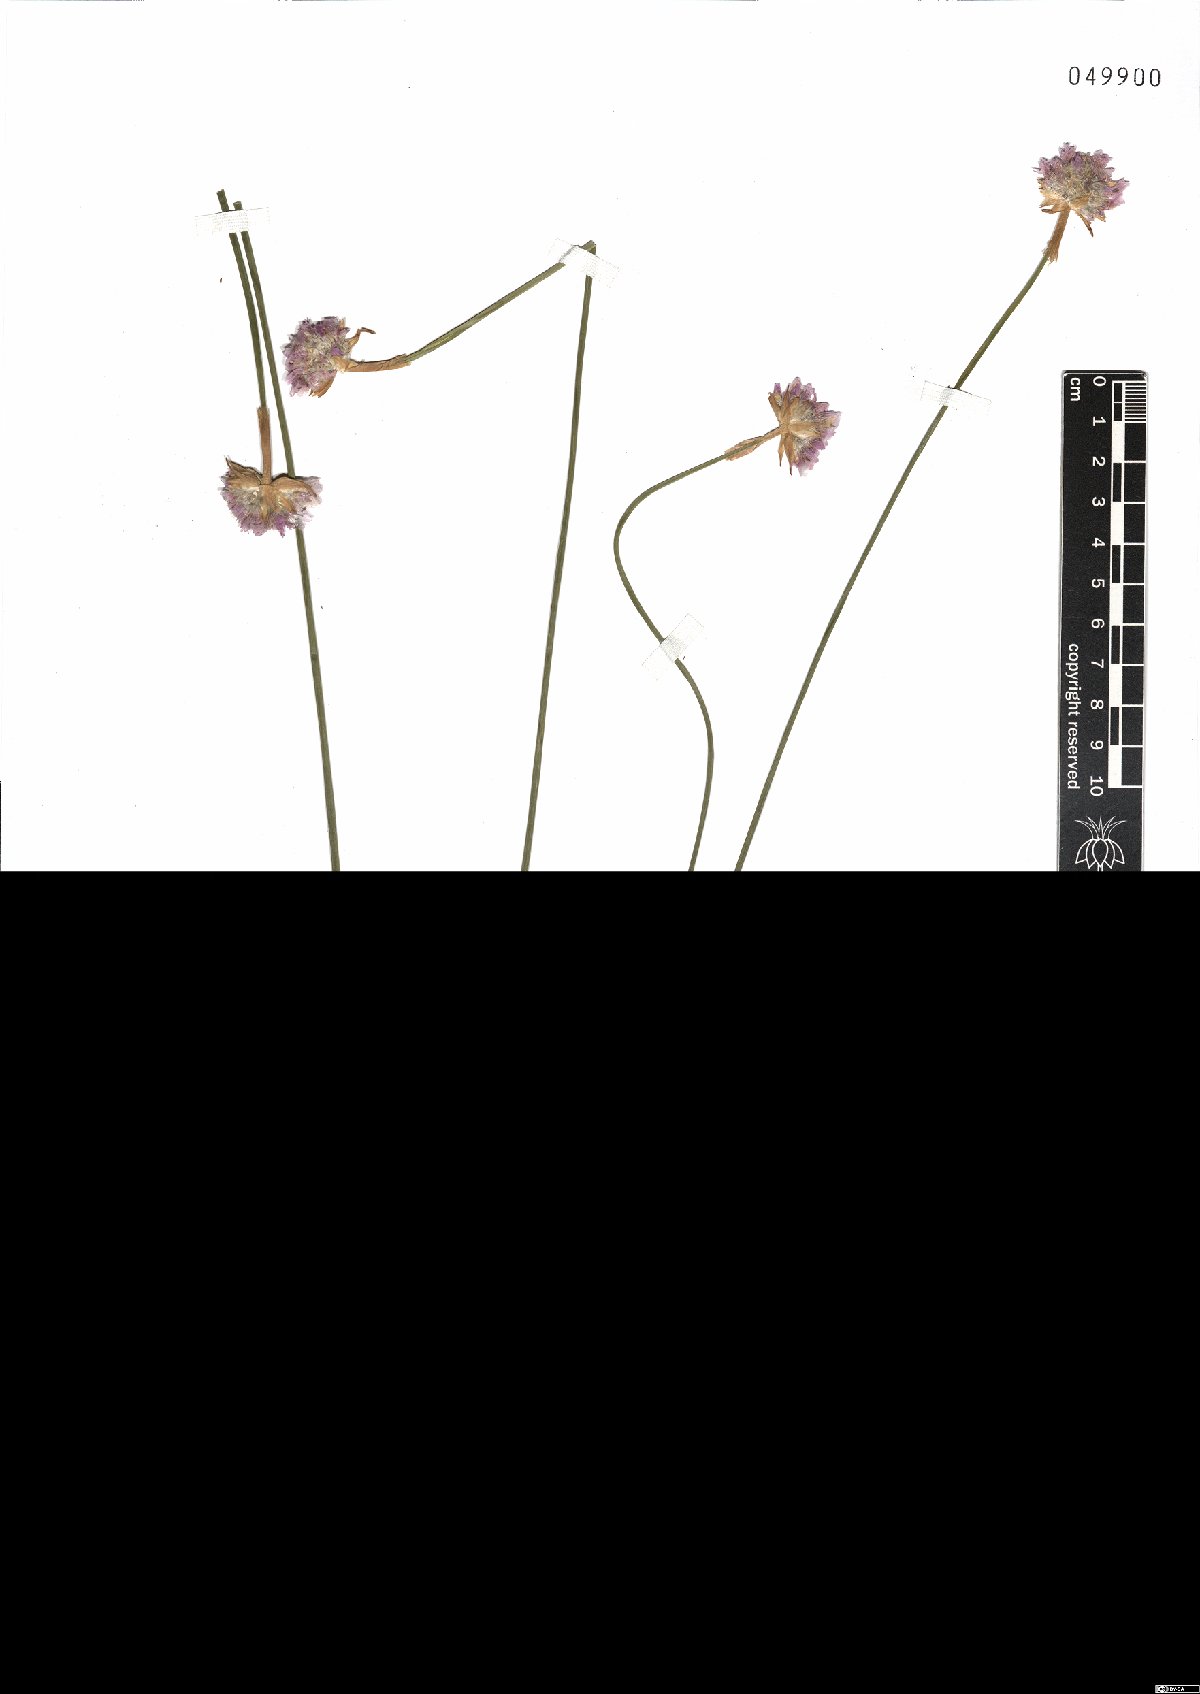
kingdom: Plantae
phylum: Tracheophyta
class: Magnoliopsida
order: Caryophyllales
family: Plumbaginaceae
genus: Armeria
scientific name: Armeria saviana
